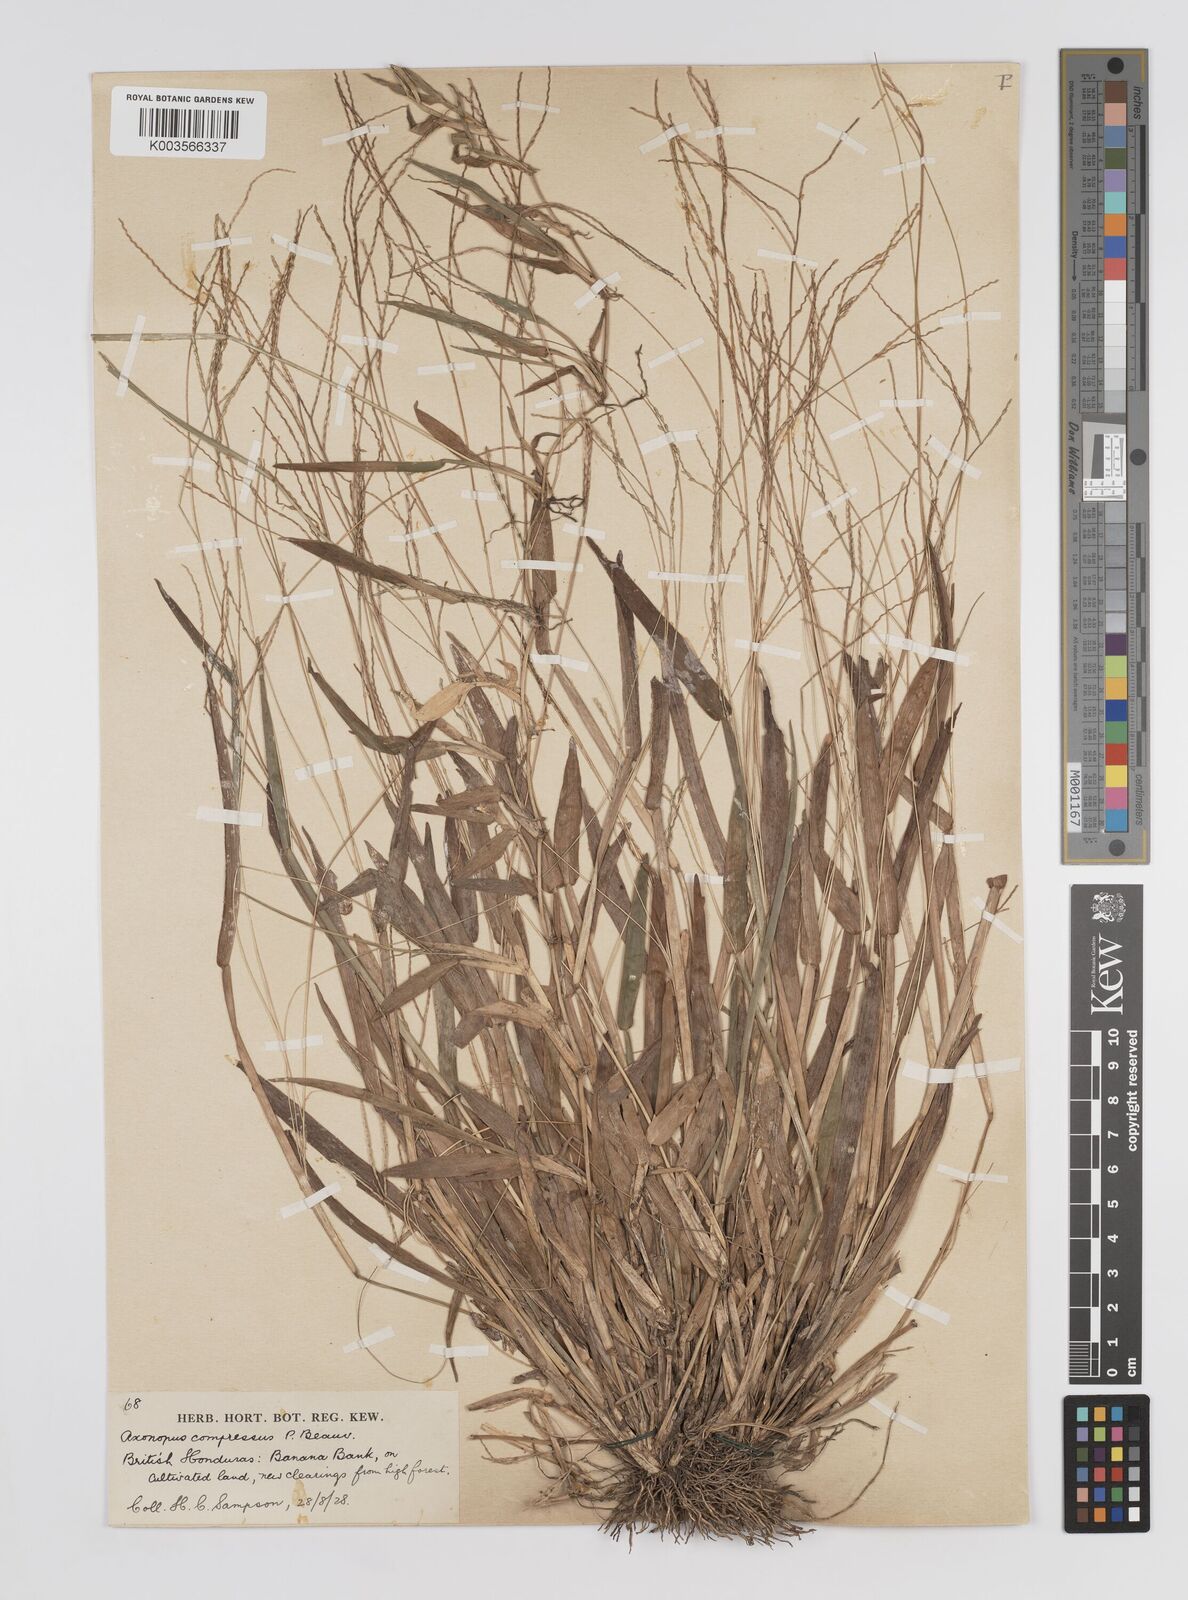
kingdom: Plantae
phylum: Tracheophyta
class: Liliopsida
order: Poales
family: Poaceae
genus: Axonopus
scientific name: Axonopus compressus
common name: American carpet grass
